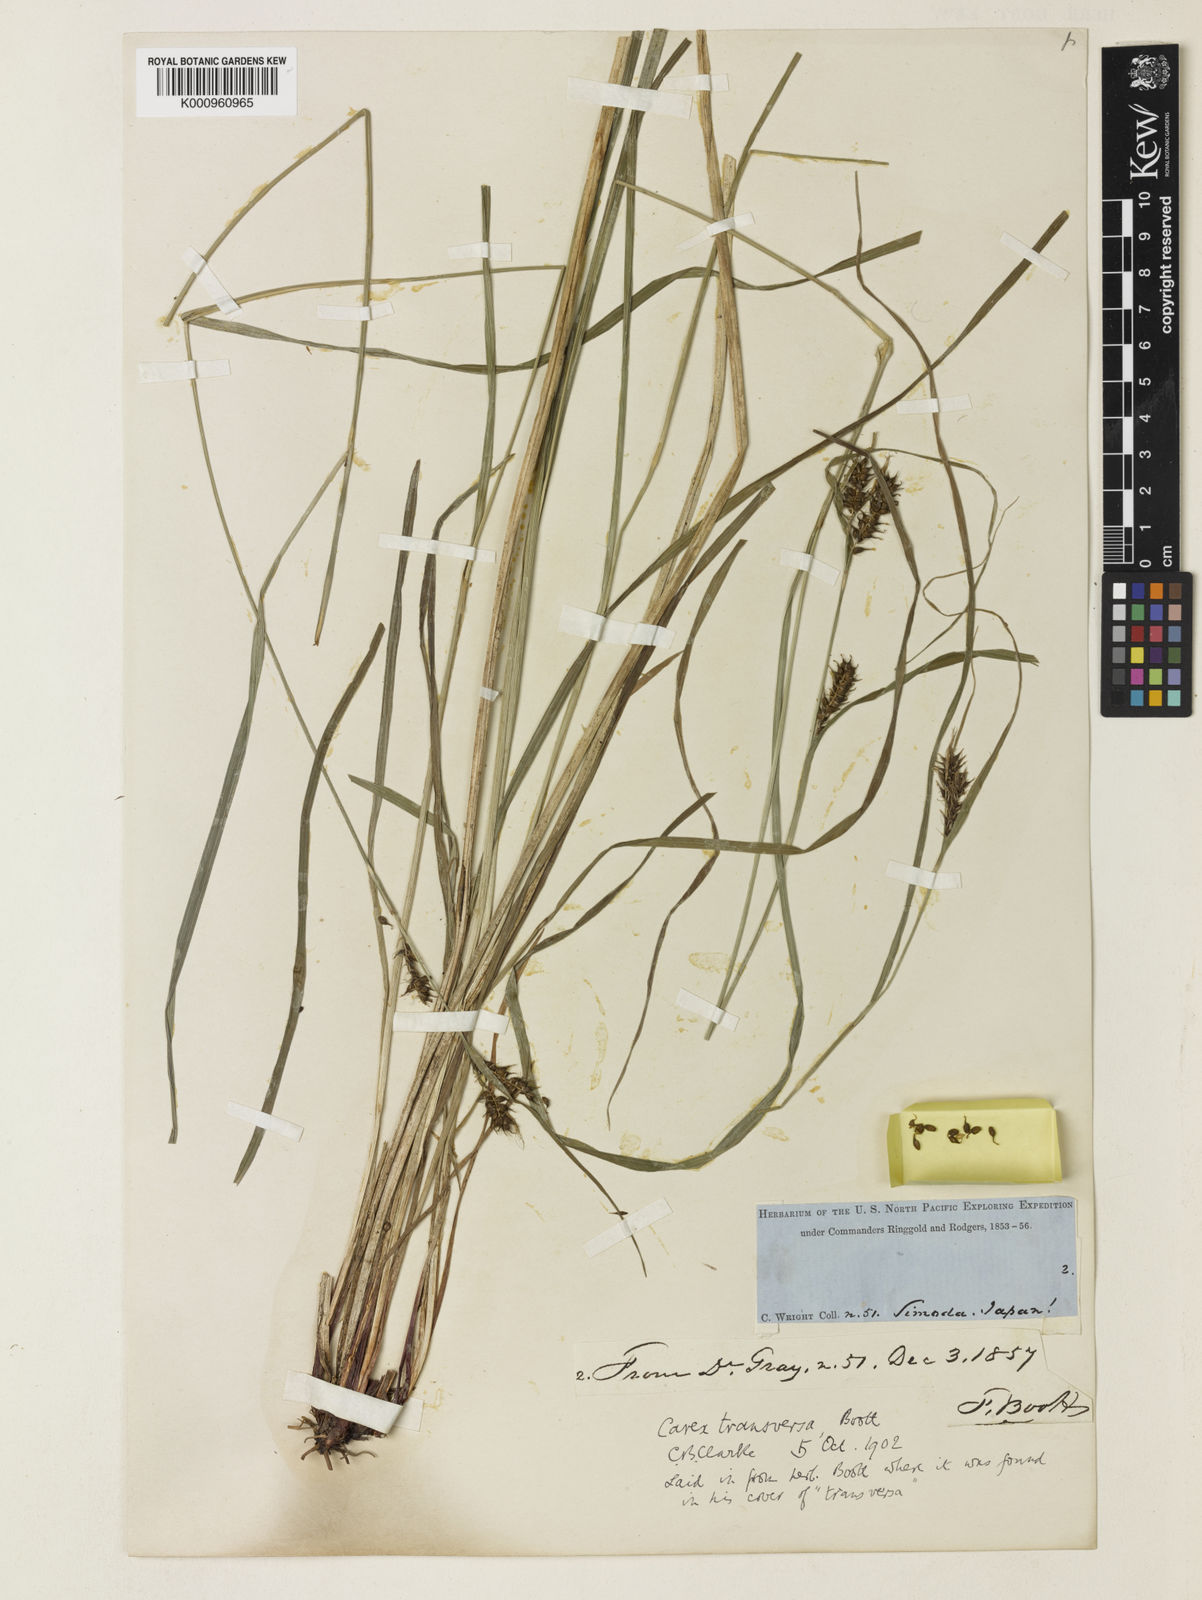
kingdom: Plantae
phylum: Tracheophyta
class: Liliopsida
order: Poales
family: Cyperaceae
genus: Carex
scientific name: Carex brownii
